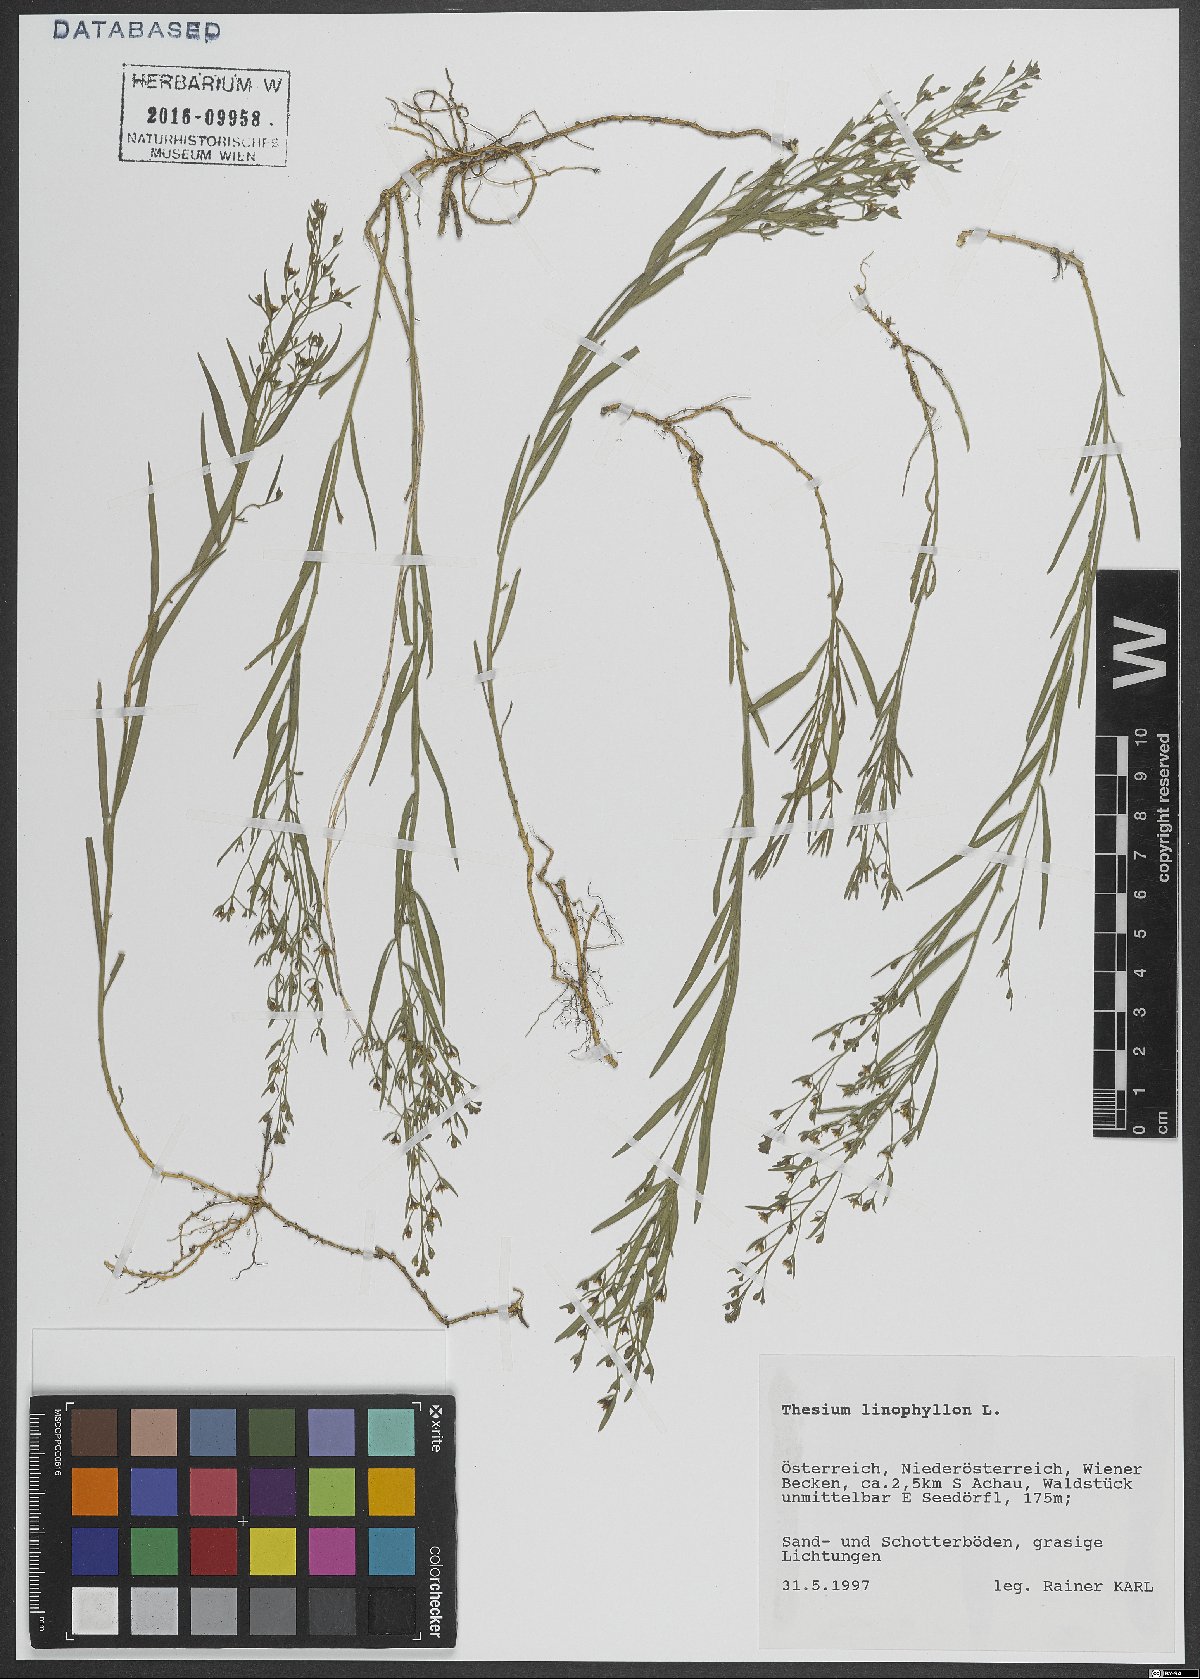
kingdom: Plantae
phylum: Tracheophyta
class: Magnoliopsida
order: Santalales
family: Thesiaceae
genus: Thesium
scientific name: Thesium linophyllon
